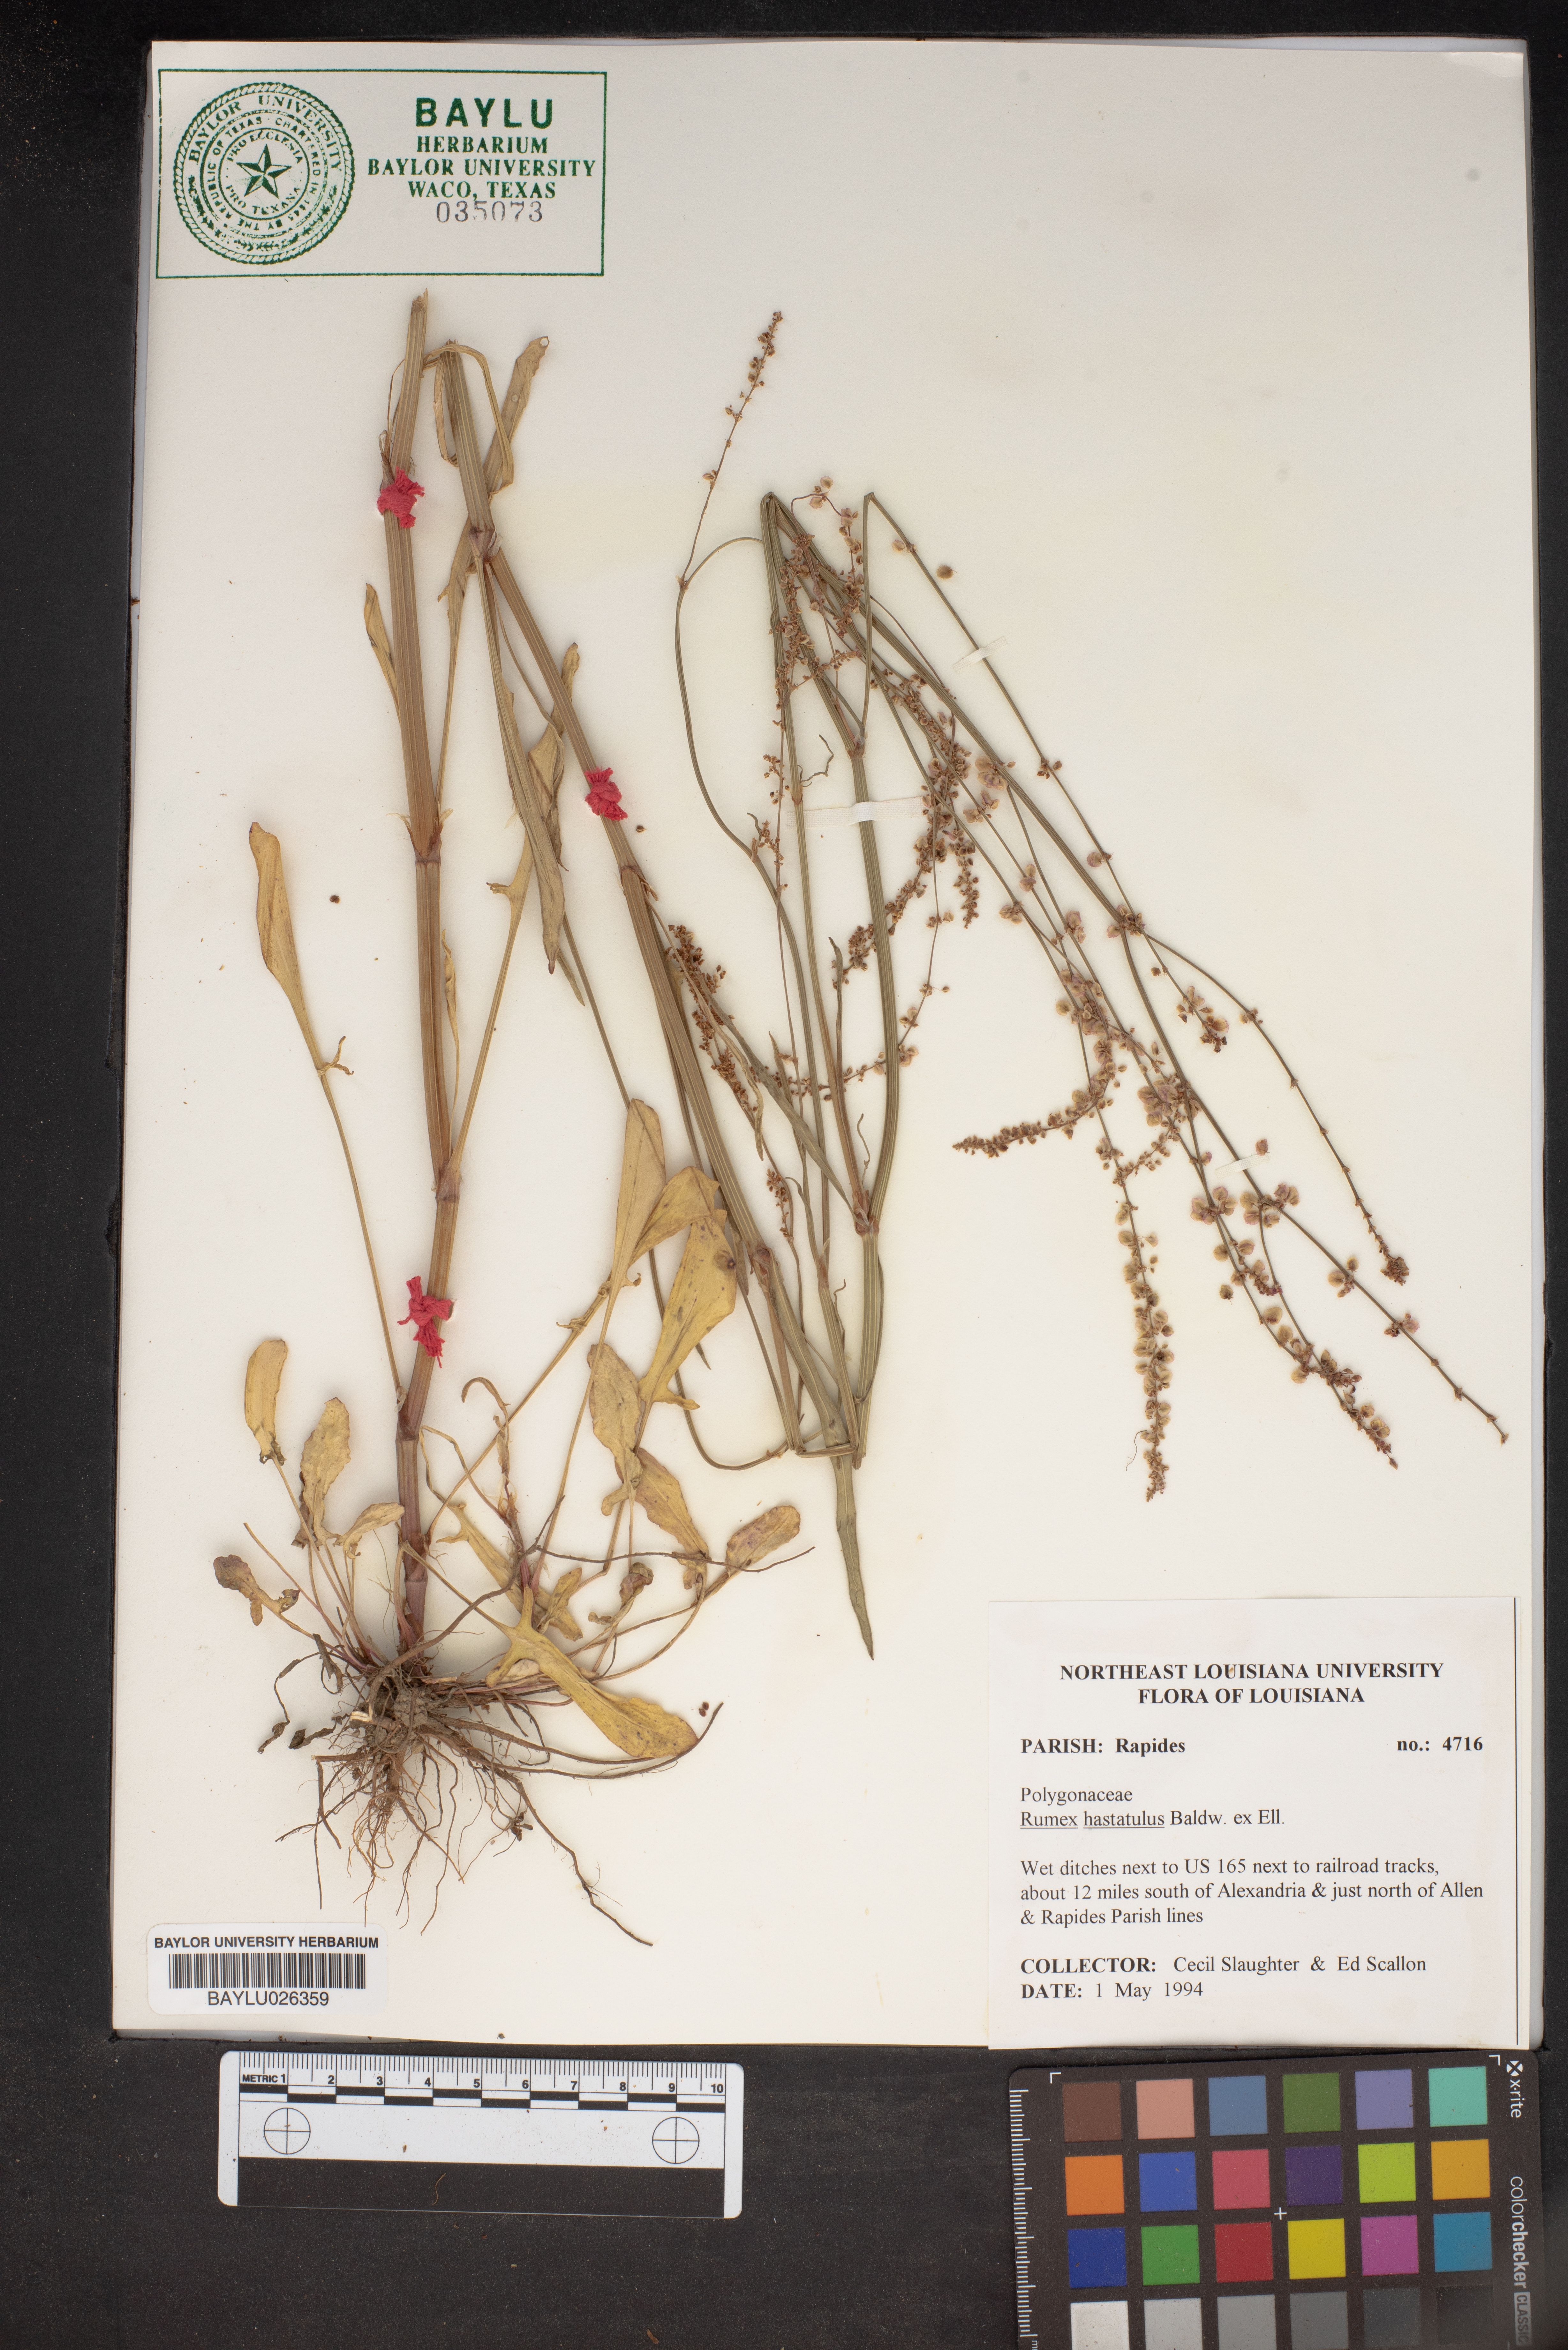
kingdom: Plantae
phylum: Tracheophyta
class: Magnoliopsida
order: Caryophyllales
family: Polygonaceae
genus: Rumex
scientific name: Rumex hastatulus
